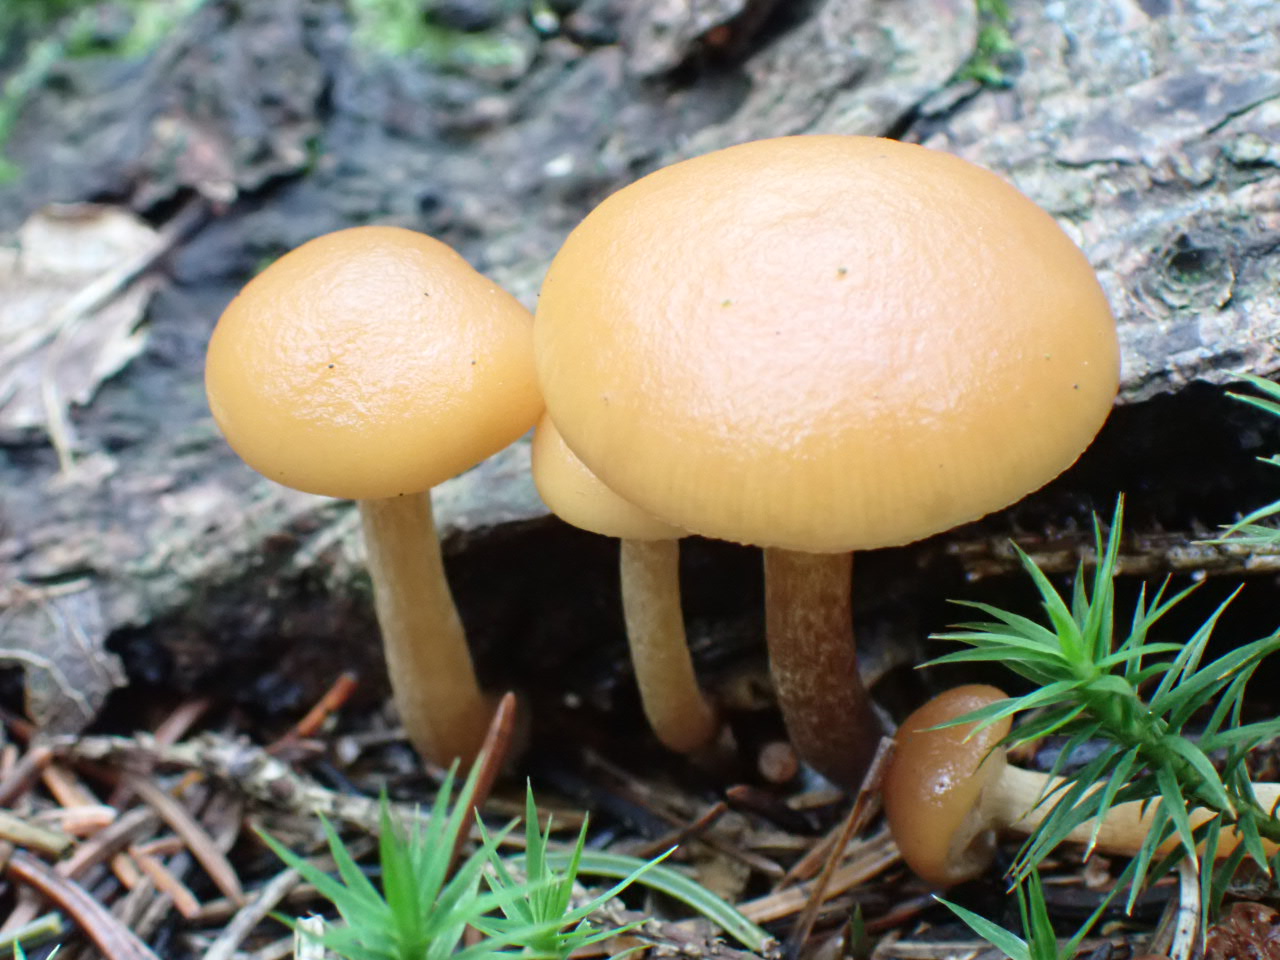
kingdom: Fungi
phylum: Basidiomycota
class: Agaricomycetes
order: Agaricales
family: Hymenogastraceae
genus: Galerina
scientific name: Galerina marginata
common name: randbæltet hjelmhat
